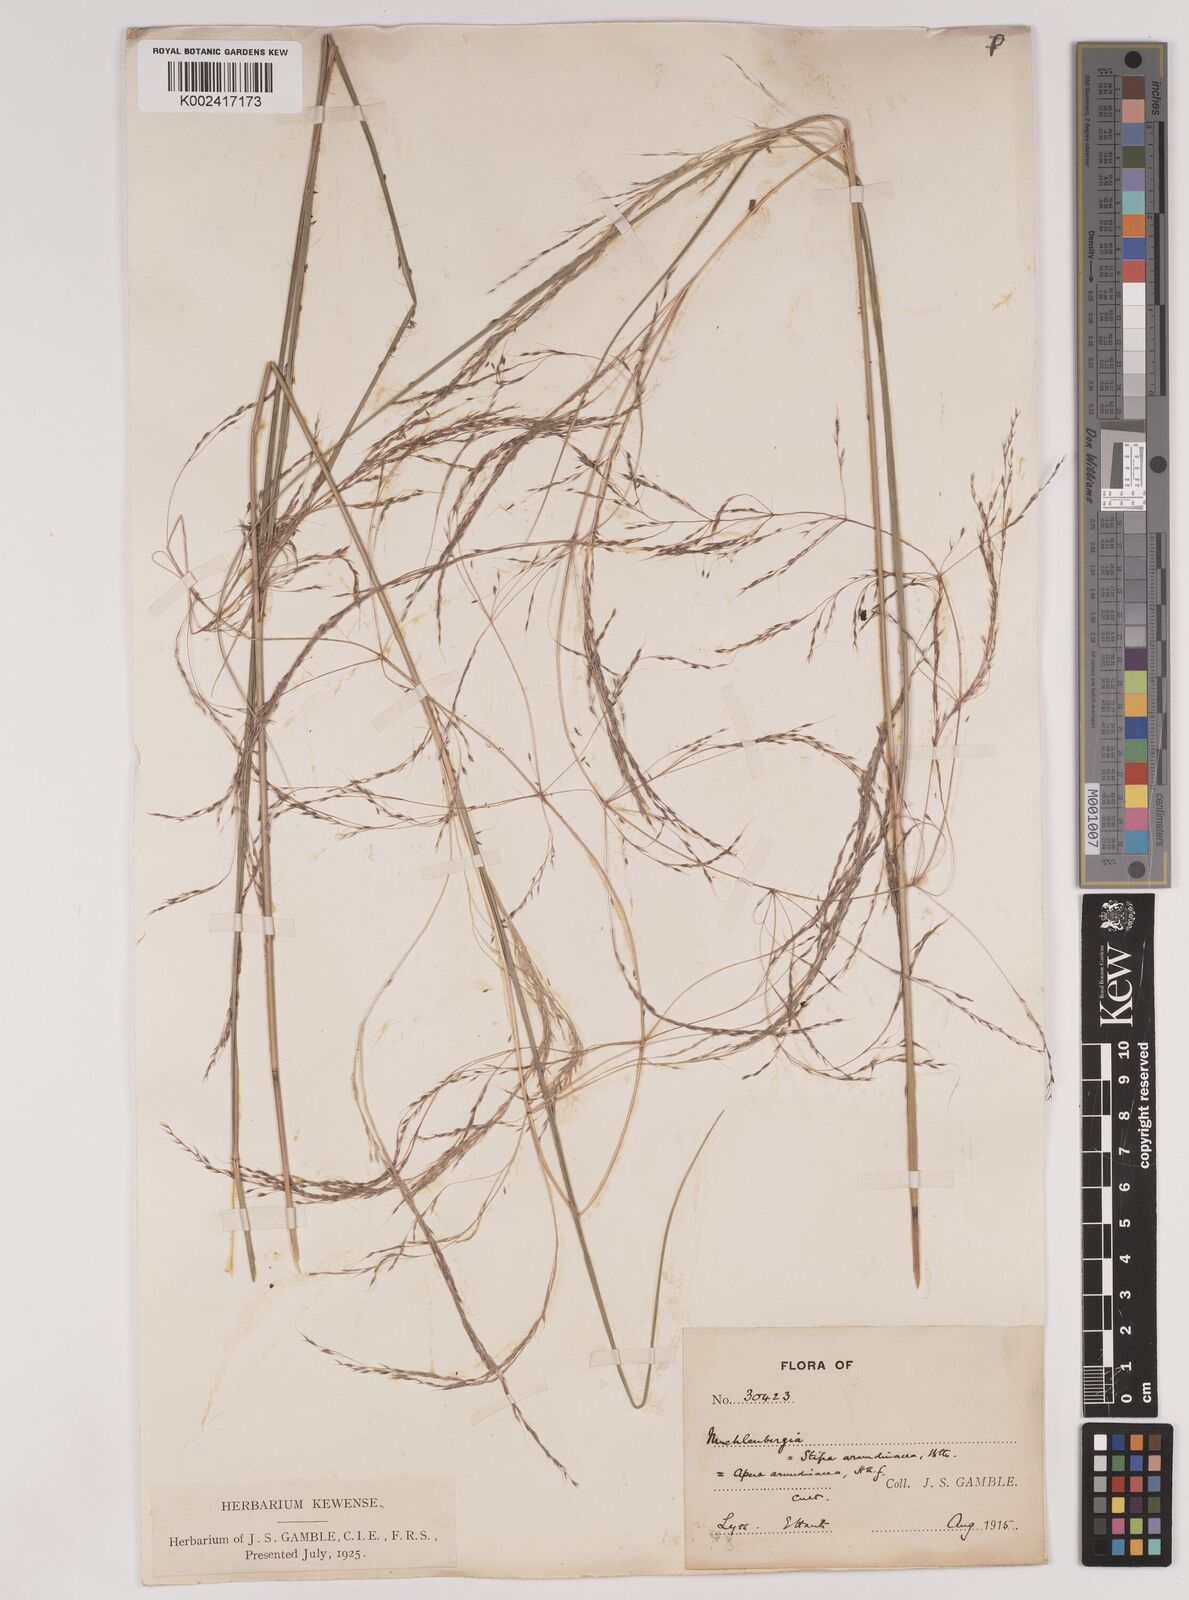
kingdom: Plantae
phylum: Tracheophyta
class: Liliopsida
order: Poales
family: Poaceae
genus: Stipa
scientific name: Stipa
